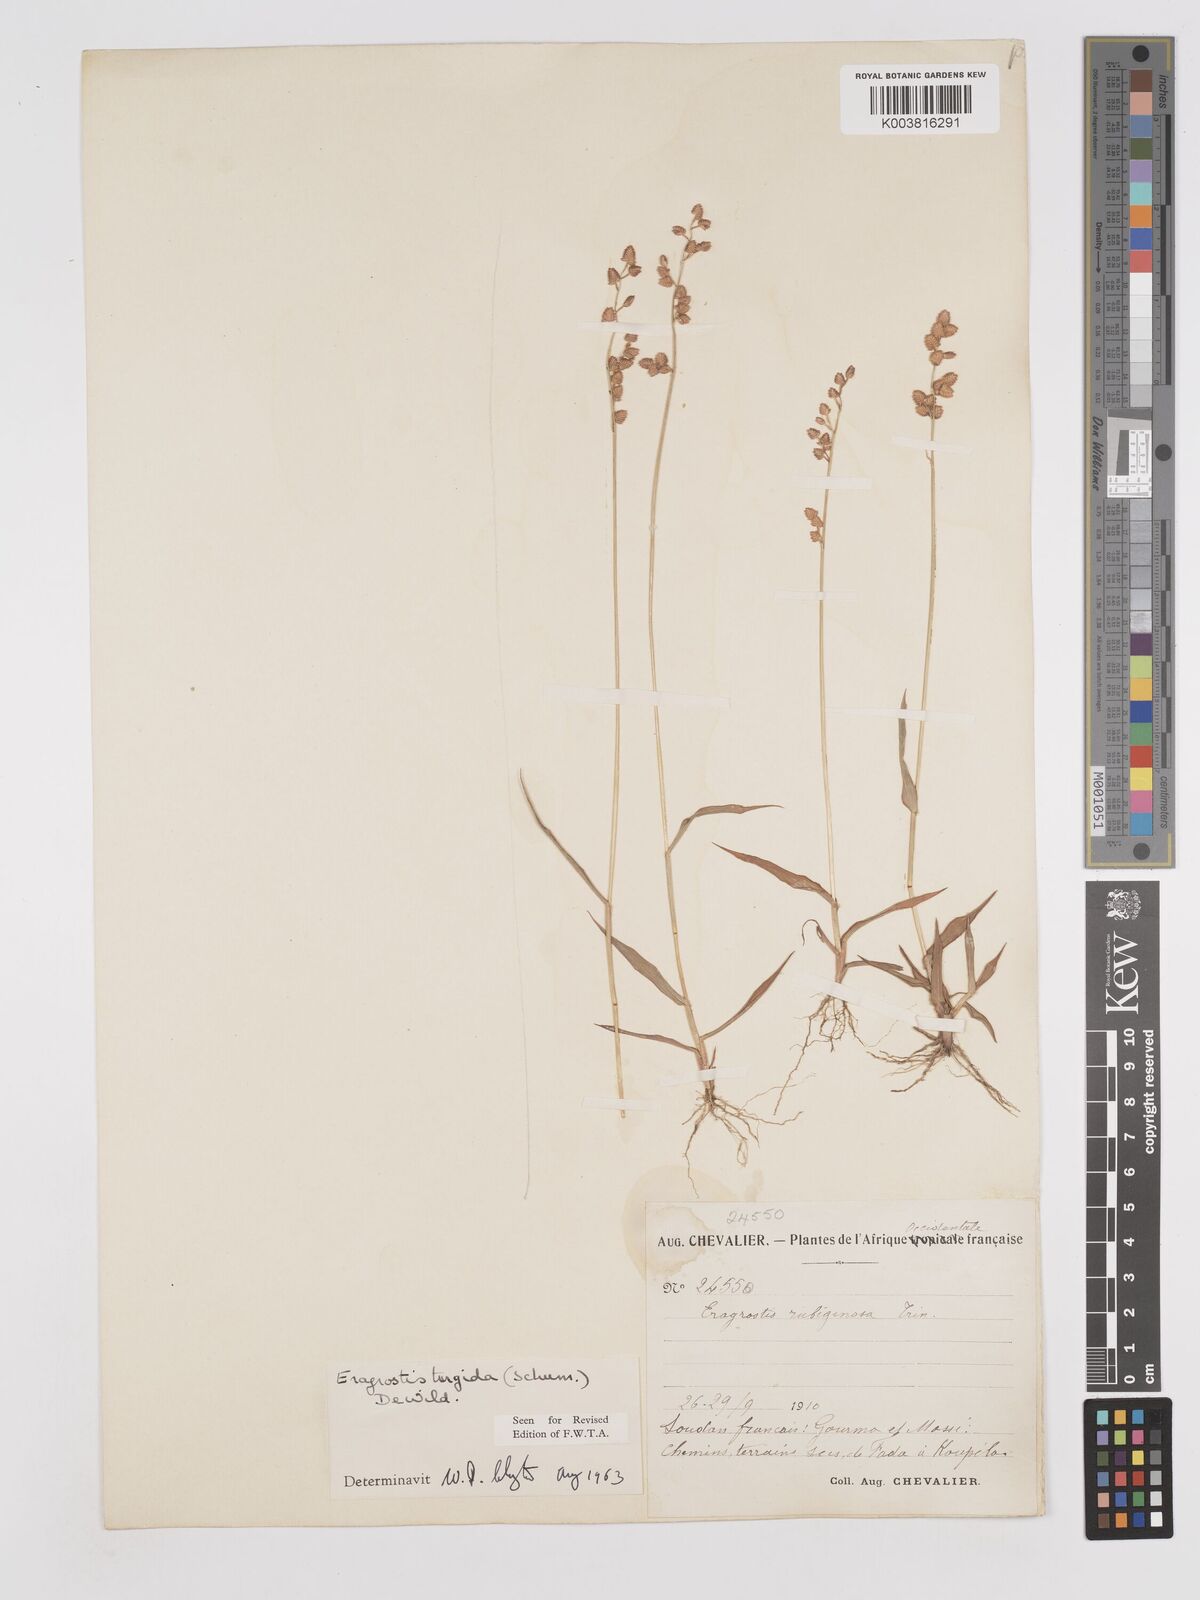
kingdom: Plantae
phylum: Tracheophyta
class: Liliopsida
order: Poales
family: Poaceae
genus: Eragrostis
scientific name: Eragrostis turgida
